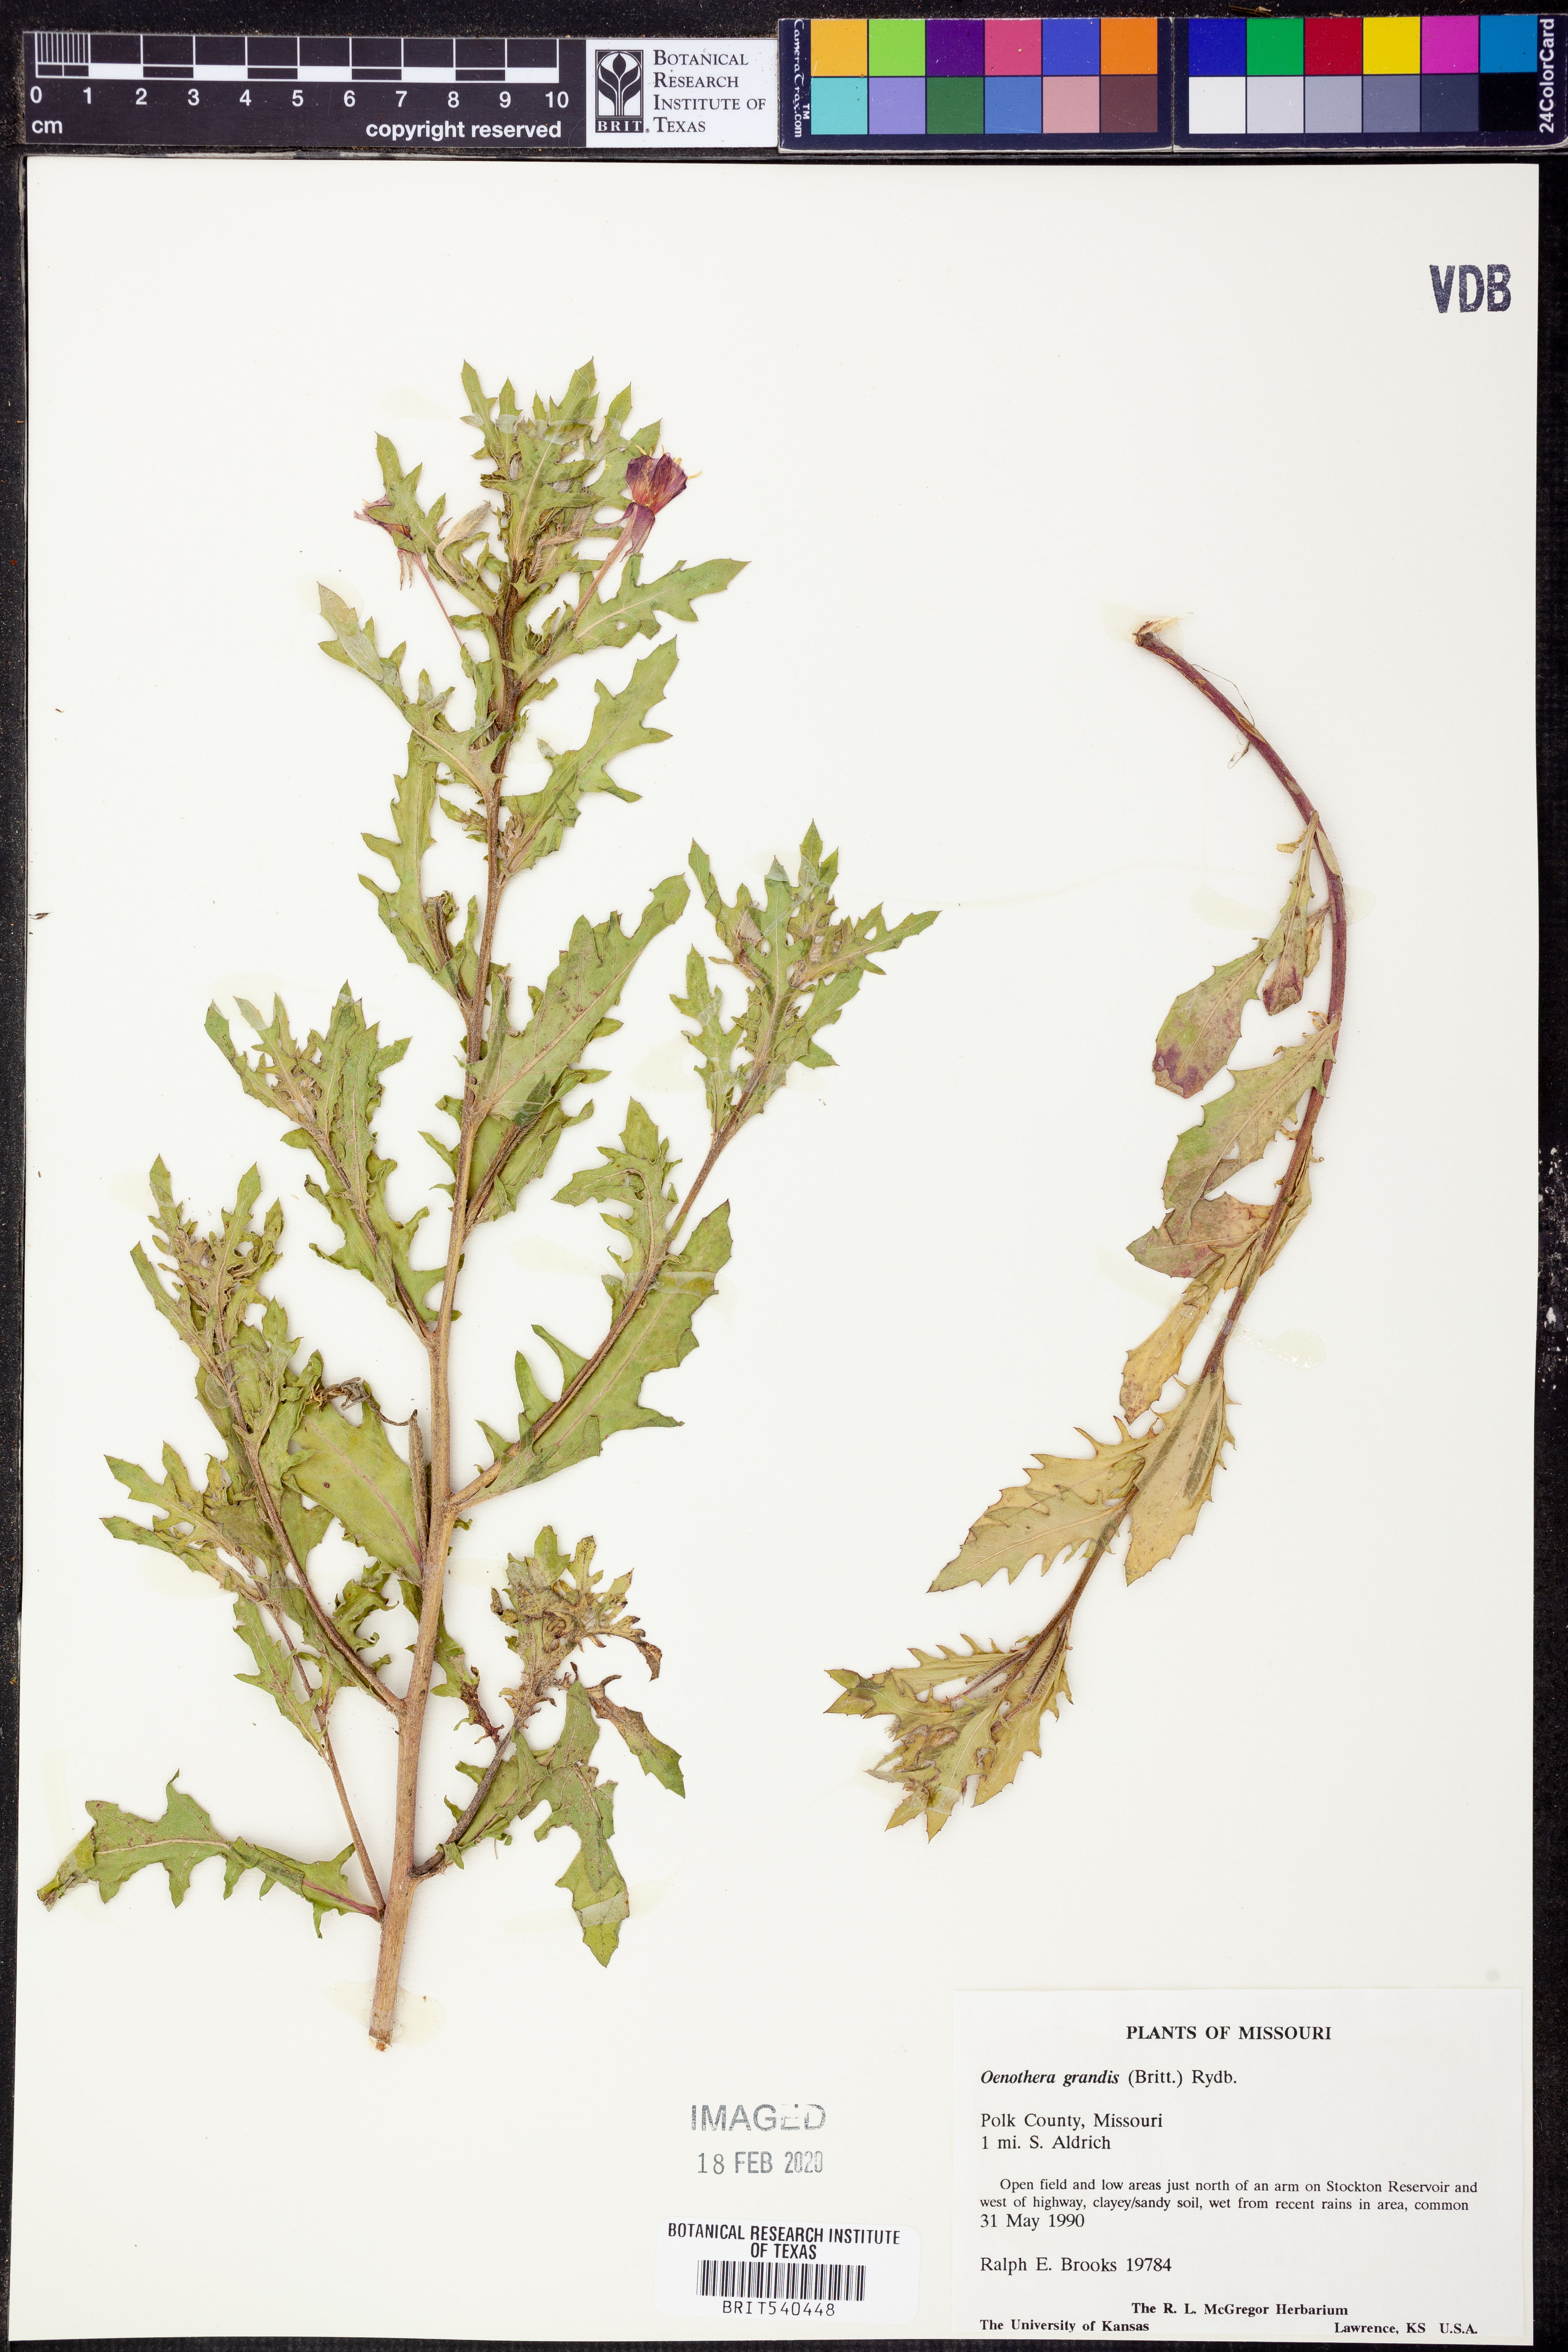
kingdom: Plantae
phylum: Tracheophyta
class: Magnoliopsida
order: Myrtales
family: Onagraceae
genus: Oenothera
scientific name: Oenothera grandis
